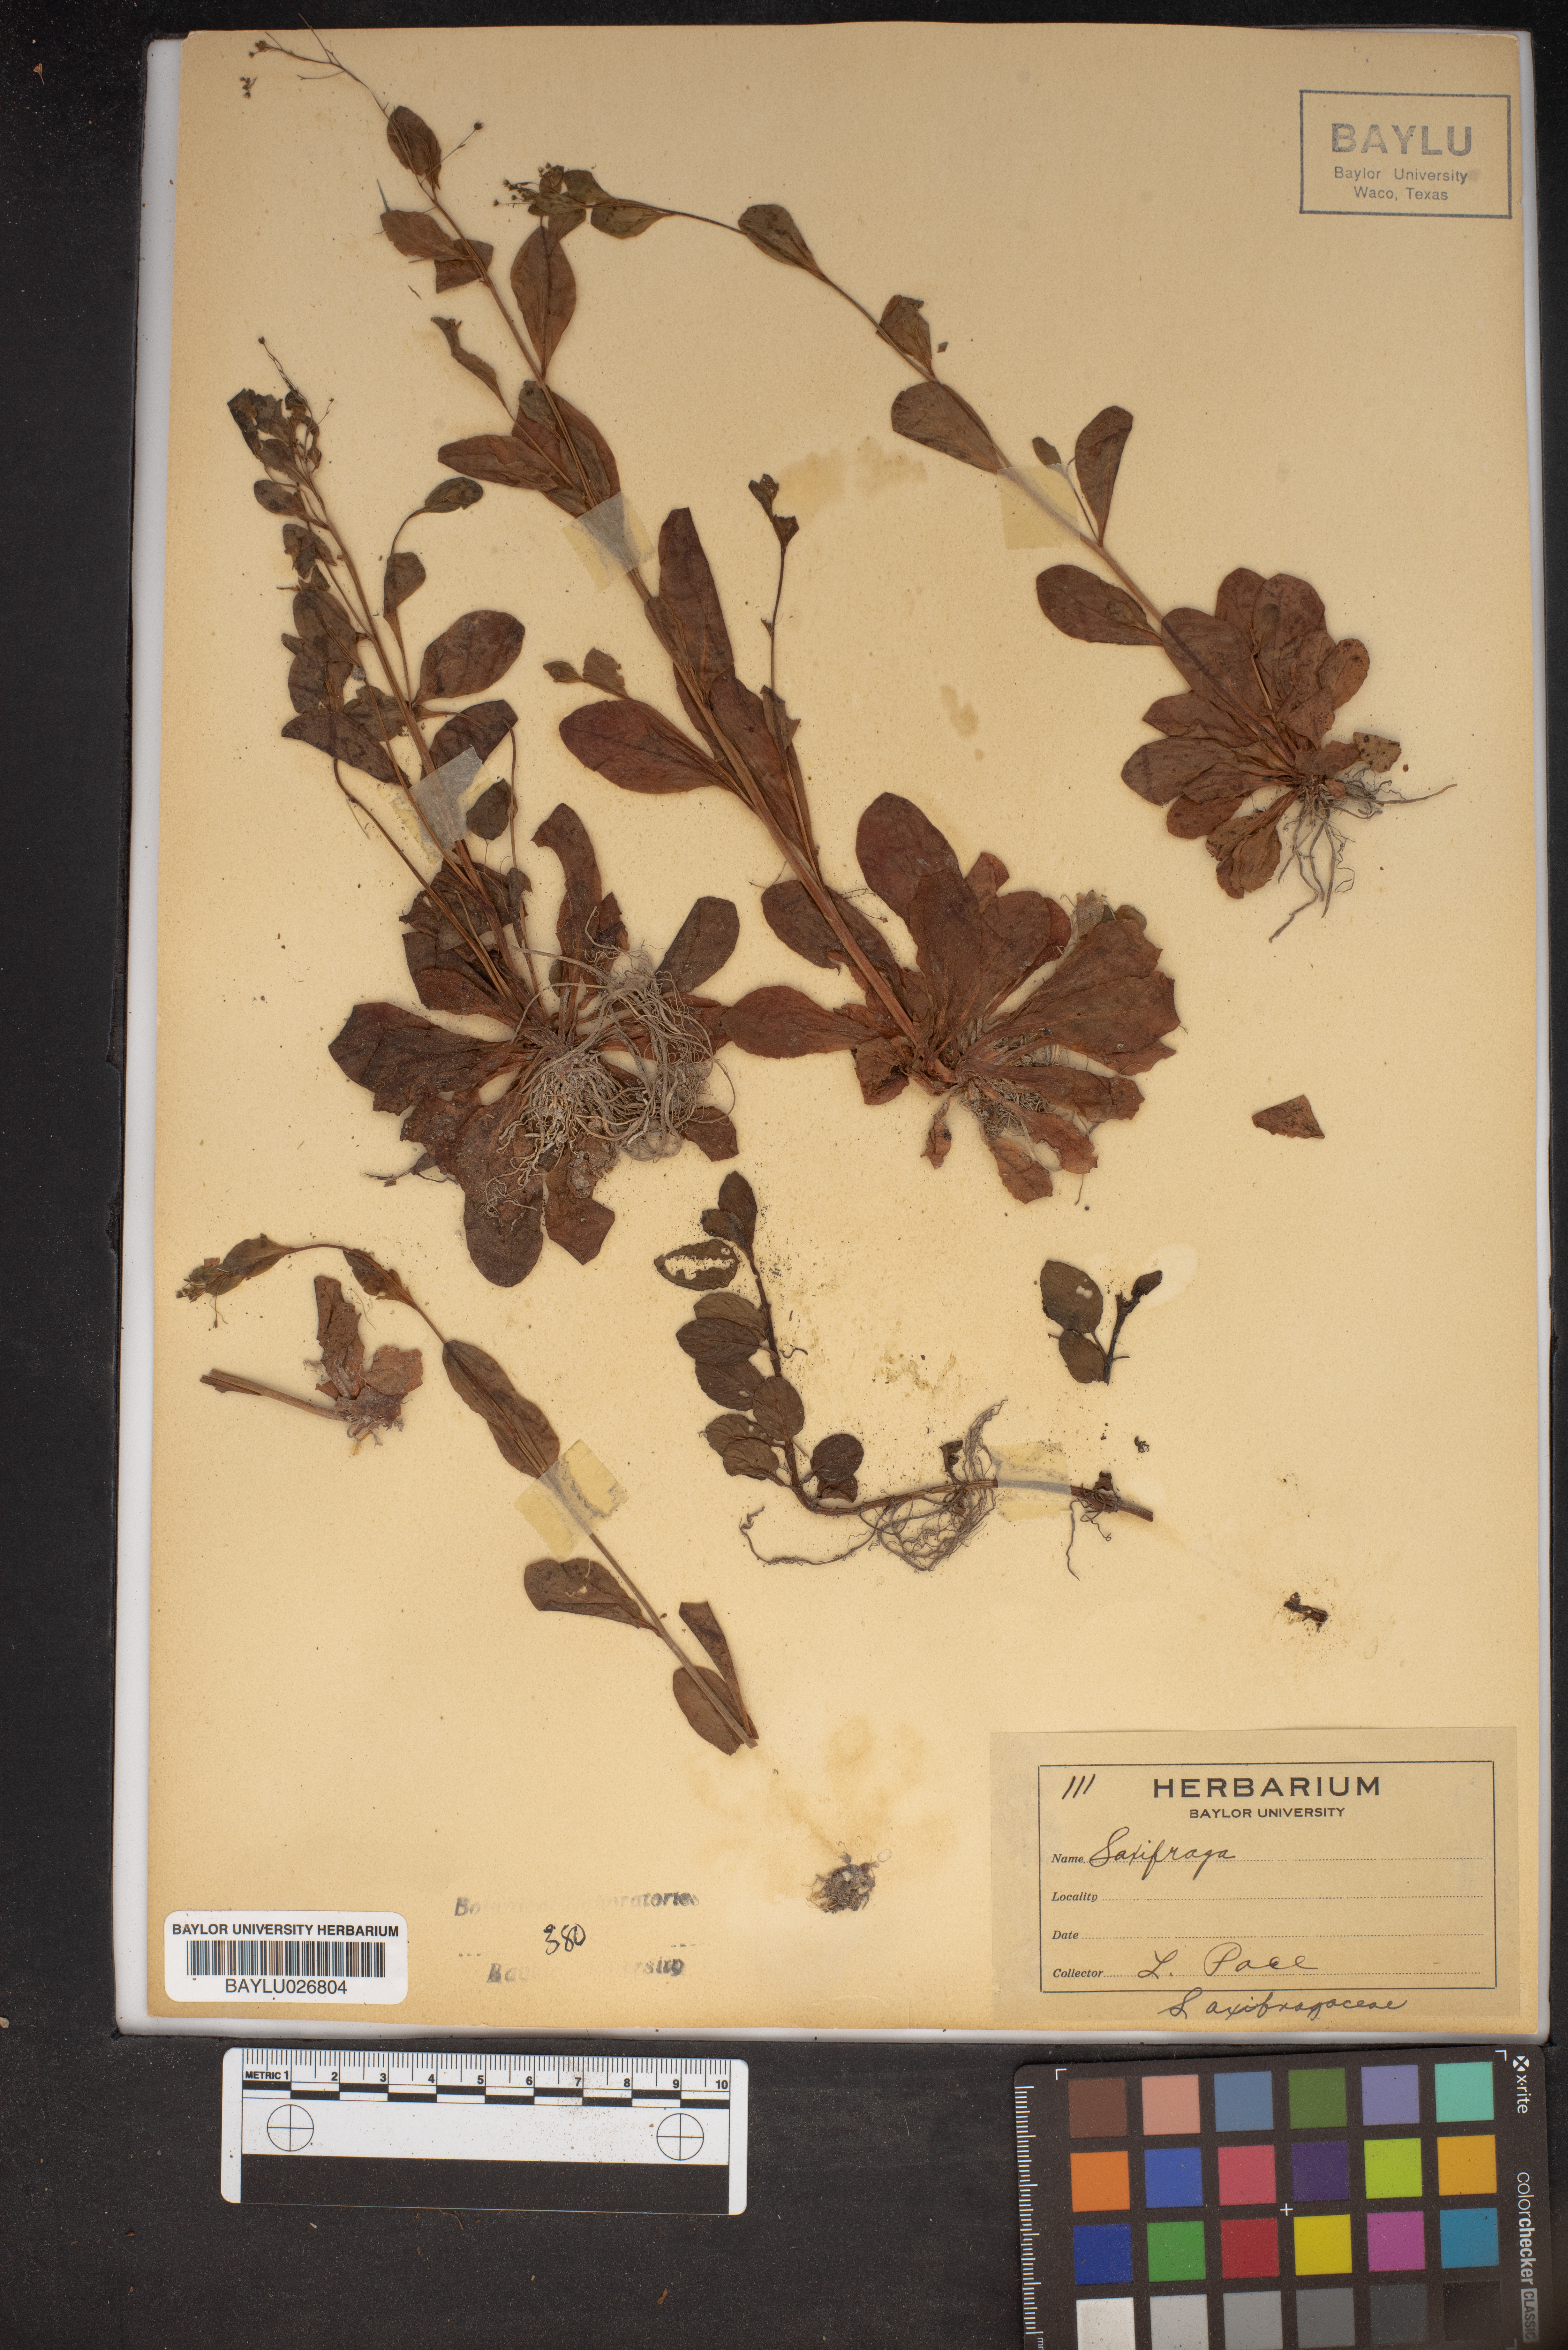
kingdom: Plantae
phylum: Tracheophyta
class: Magnoliopsida
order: Saxifragales
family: Saxifragaceae
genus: Saxifraga
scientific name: Saxifraga
